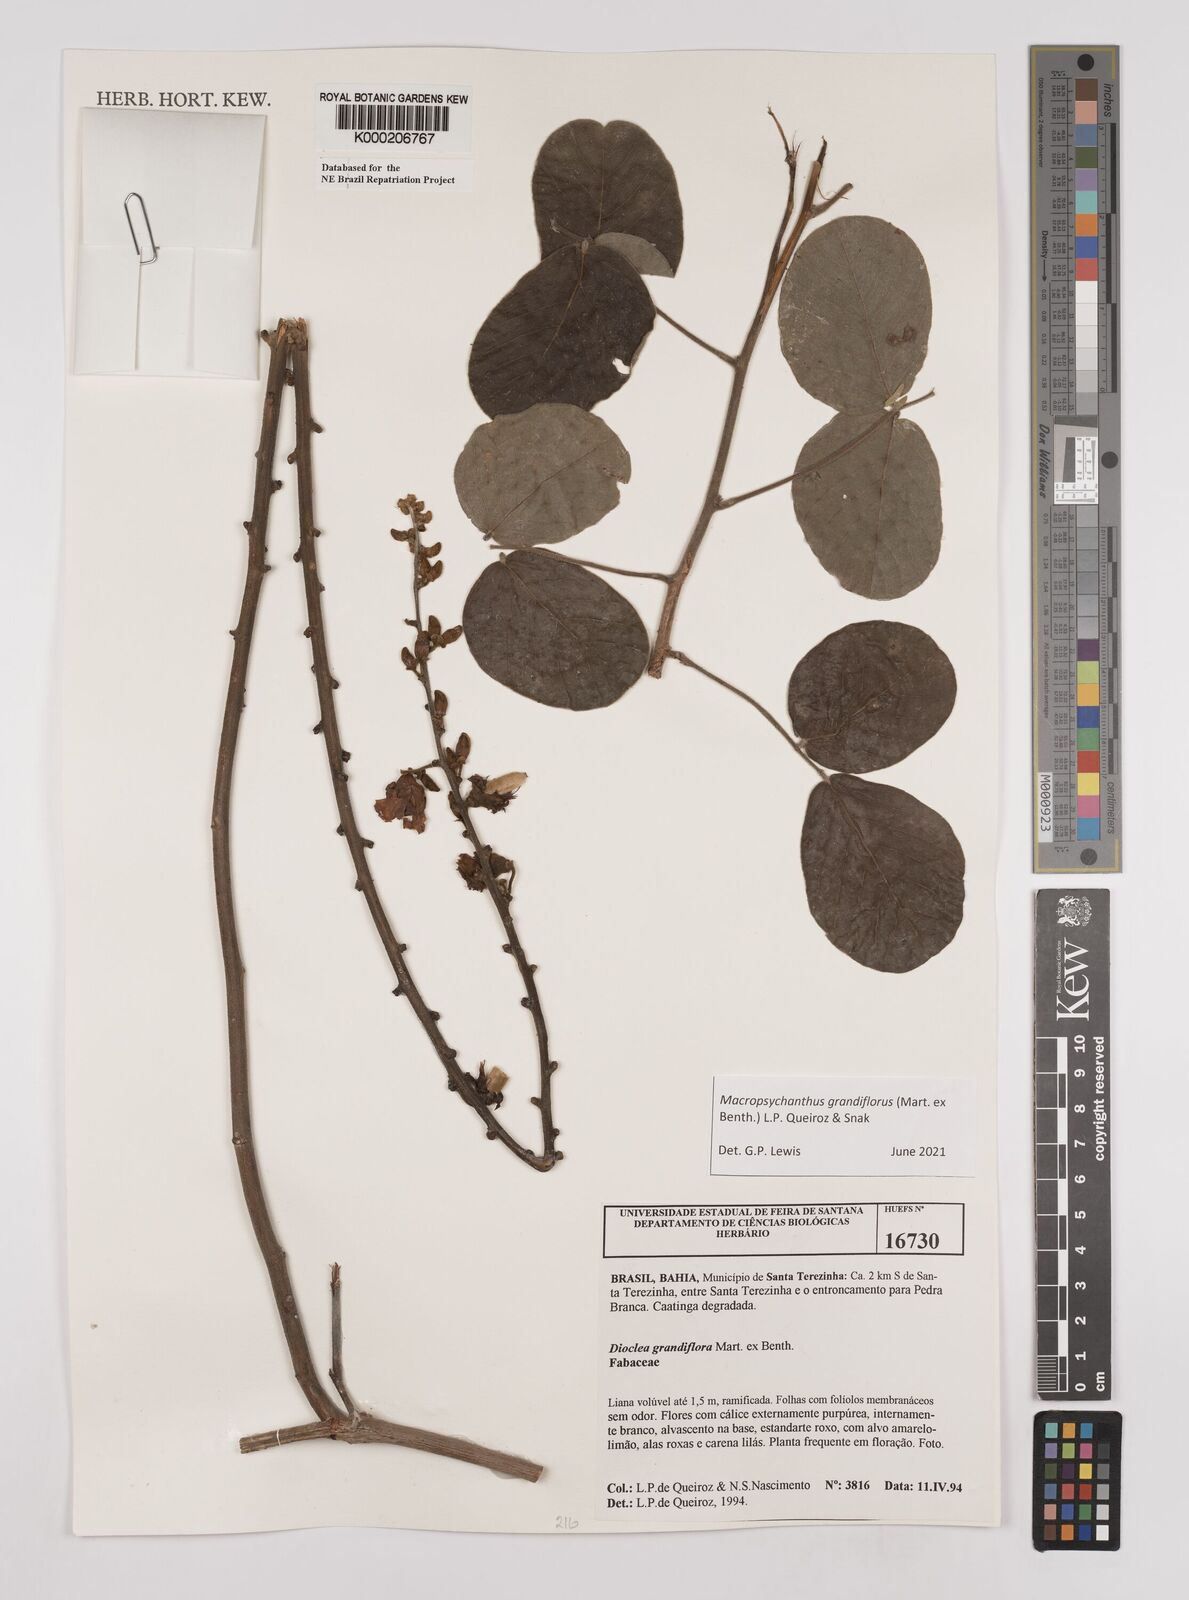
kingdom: Plantae
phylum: Tracheophyta
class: Magnoliopsida
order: Fabales
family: Fabaceae
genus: Macropsychanthus
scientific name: Macropsychanthus grandiflorus
